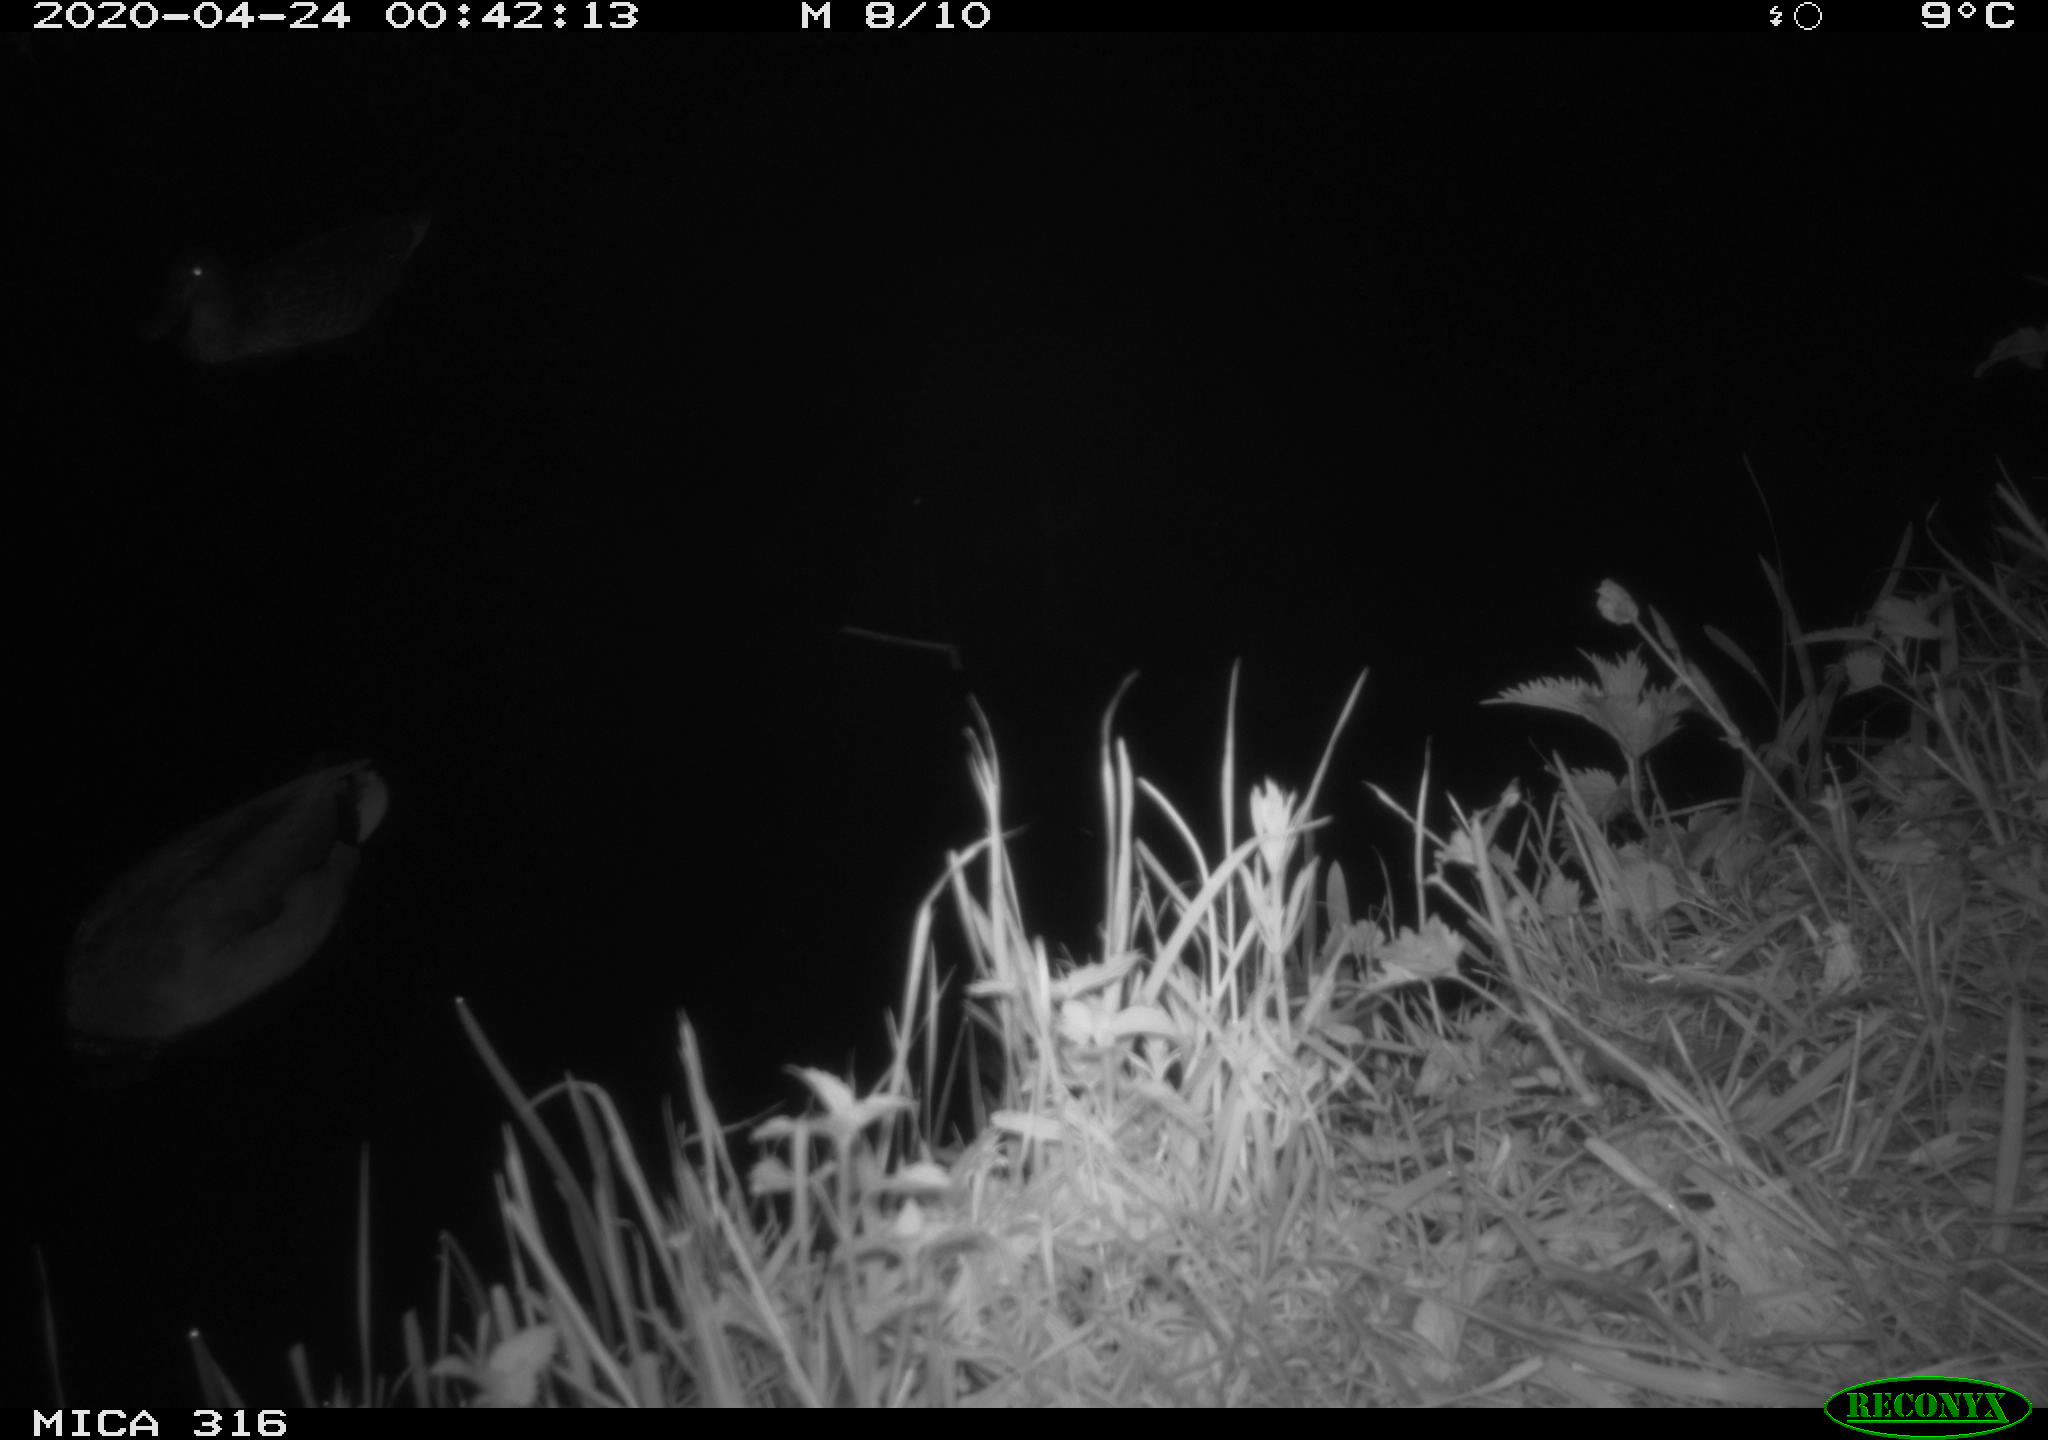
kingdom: Animalia
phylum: Chordata
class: Aves
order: Anseriformes
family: Anatidae
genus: Anas
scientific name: Anas platyrhynchos
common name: Mallard
